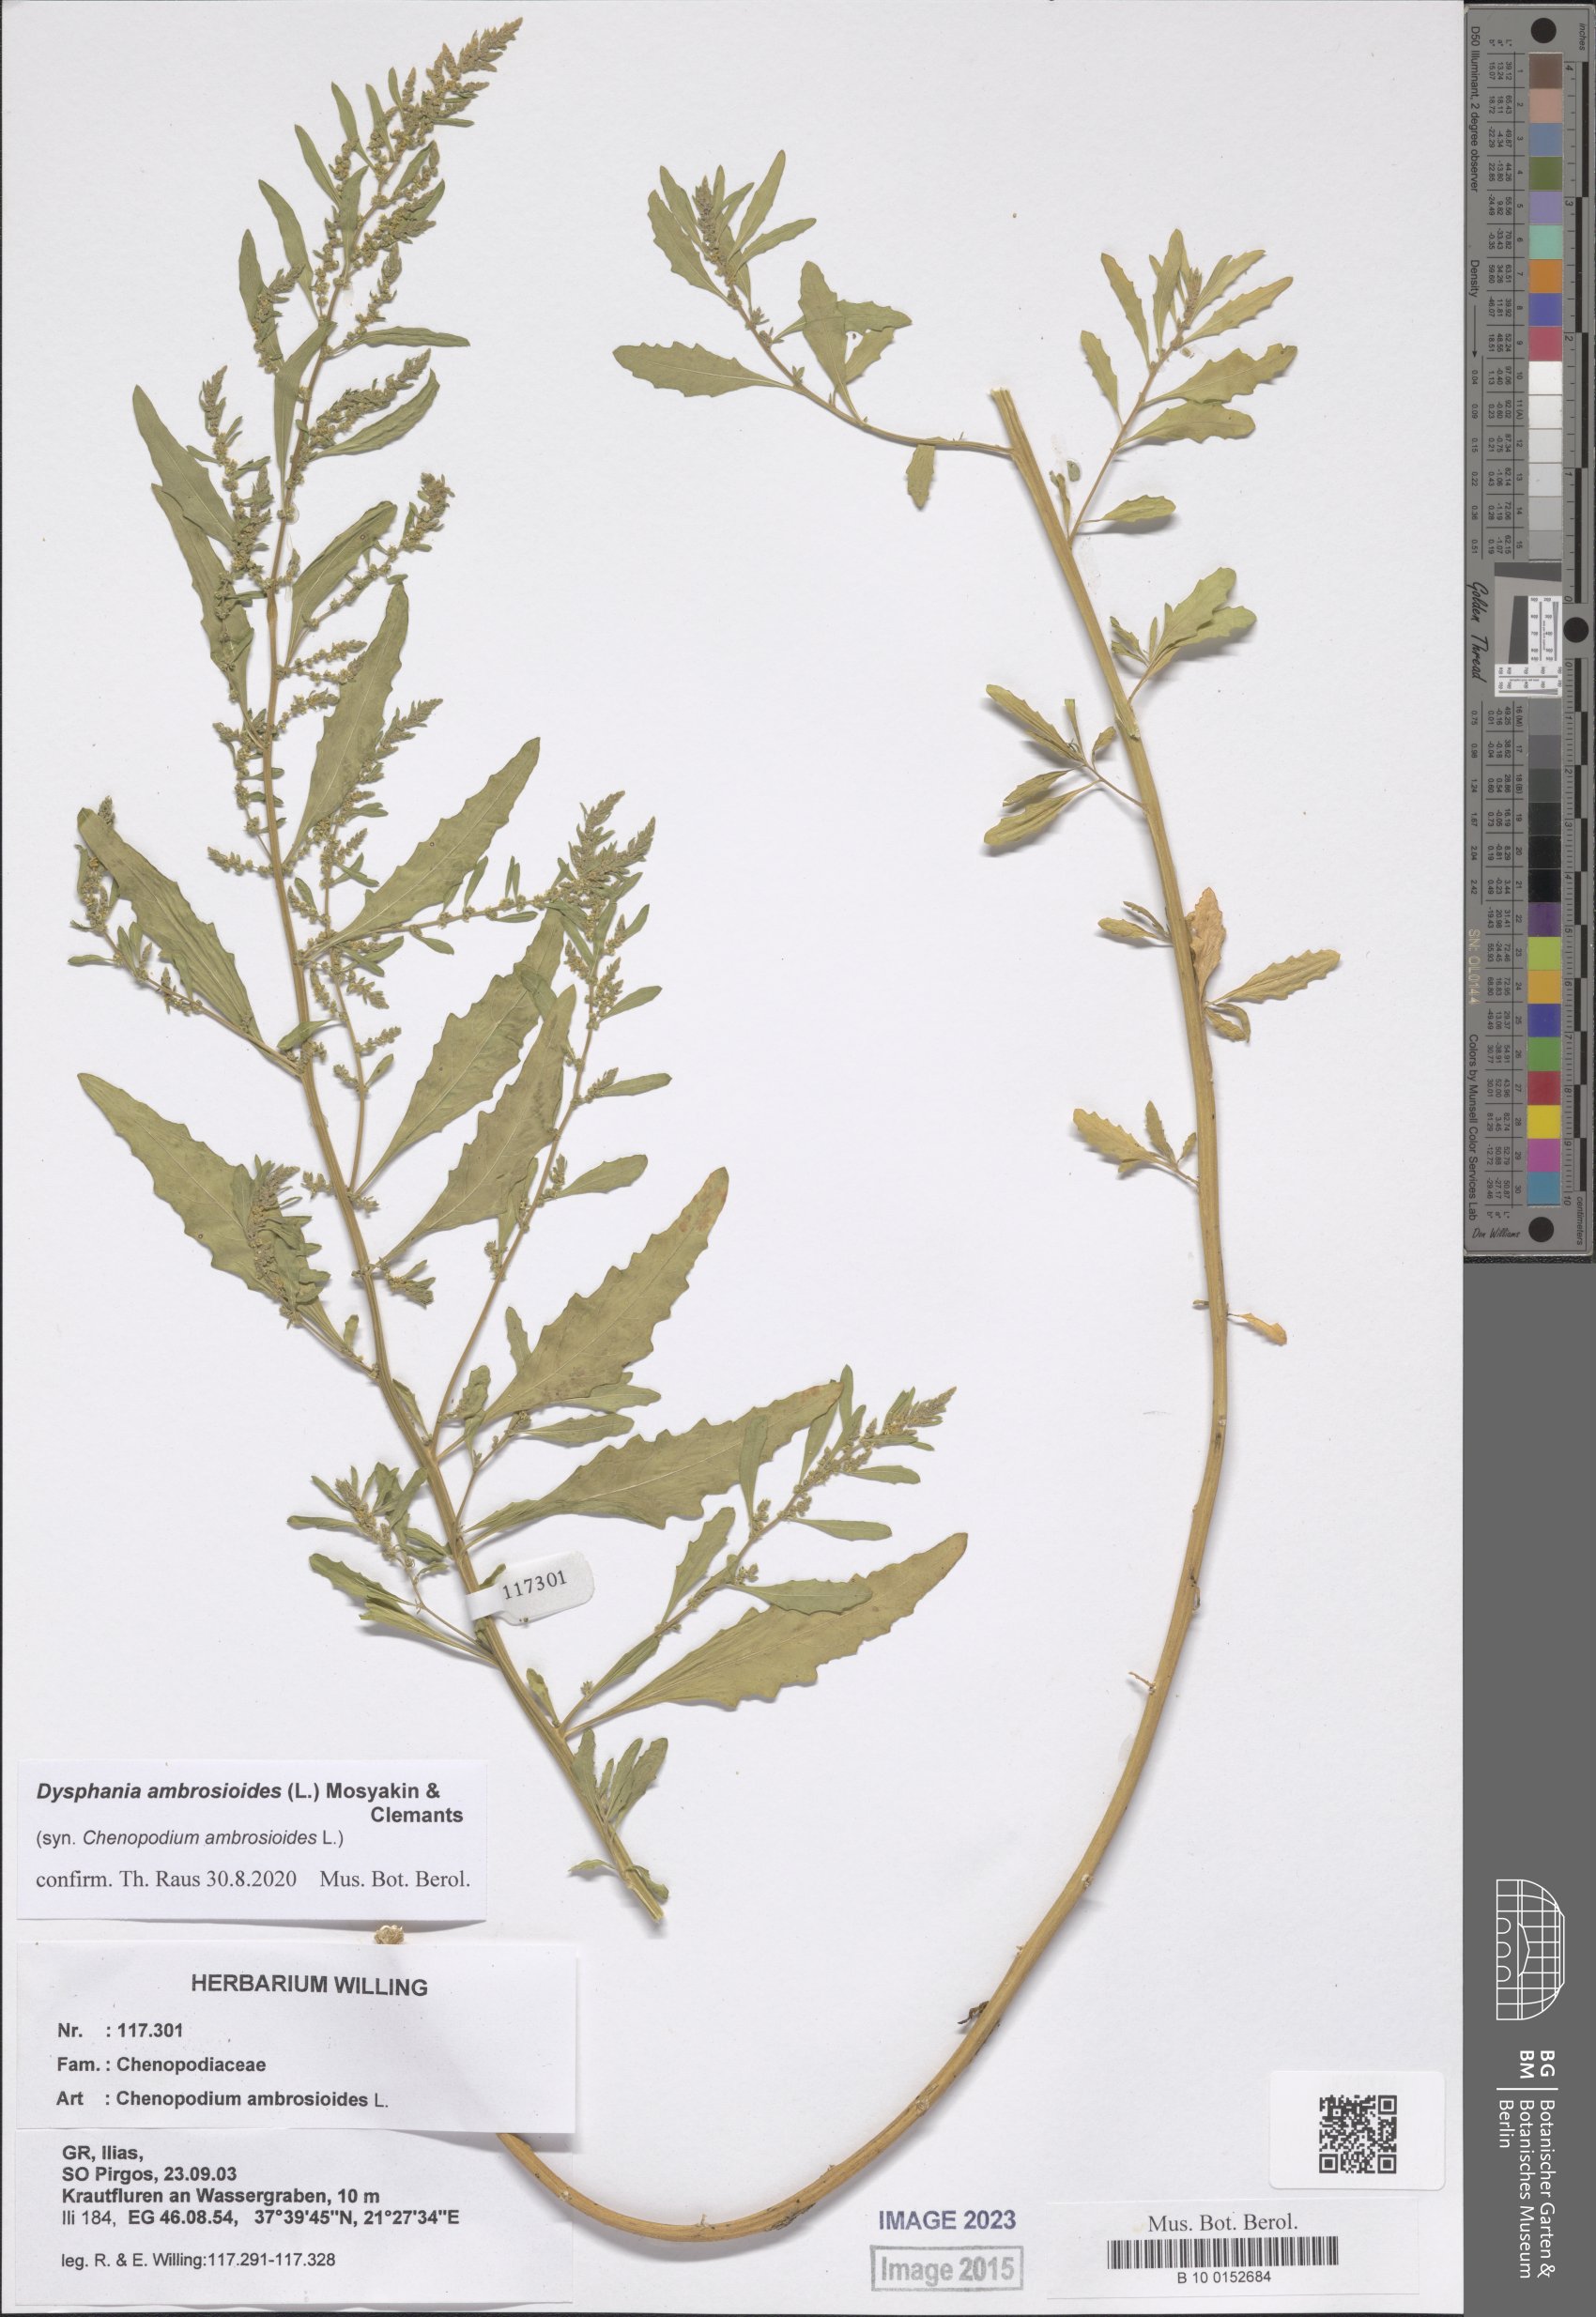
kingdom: Plantae
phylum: Tracheophyta
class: Magnoliopsida
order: Caryophyllales
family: Amaranthaceae
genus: Dysphania
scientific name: Dysphania ambrosioides
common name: Wormseed
